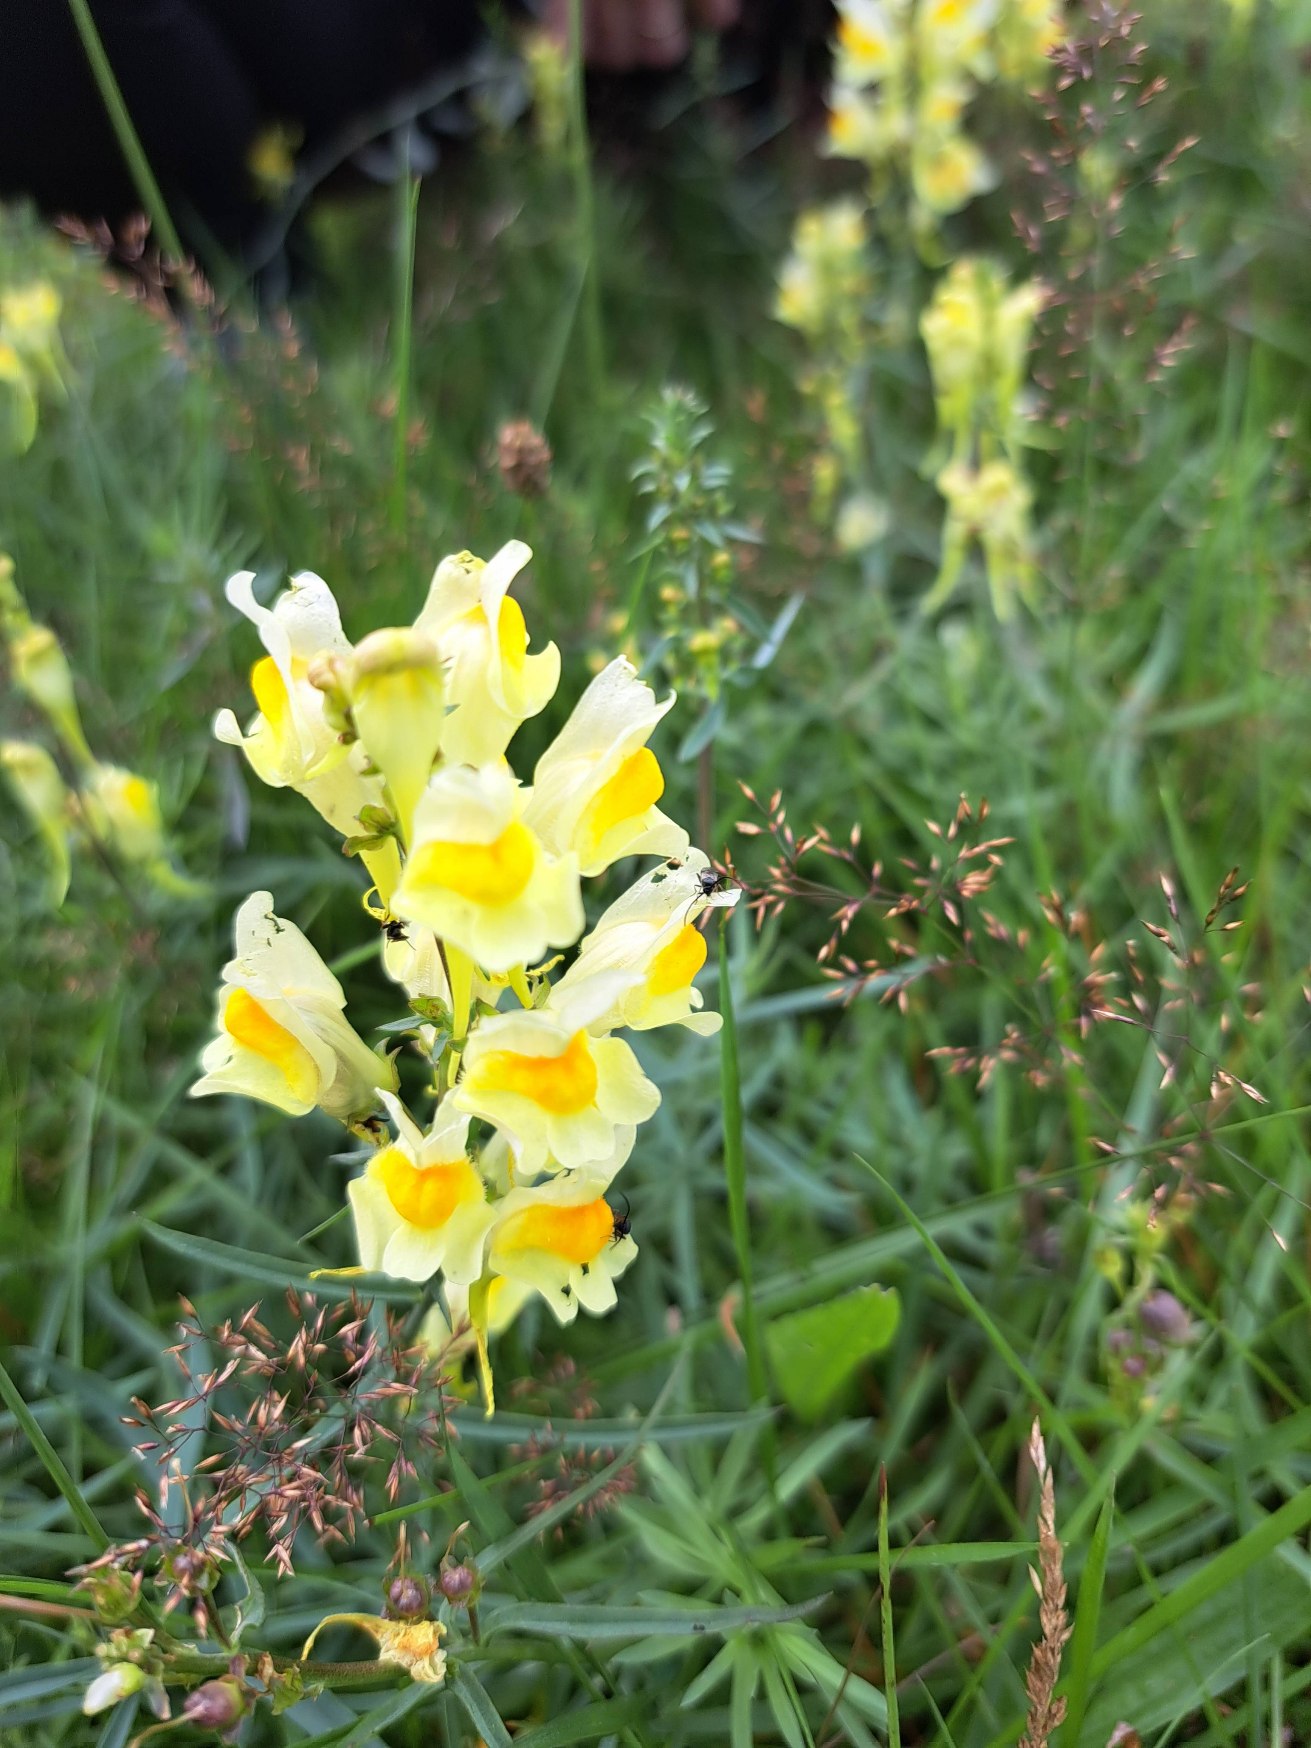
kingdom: Plantae
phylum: Tracheophyta
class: Magnoliopsida
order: Lamiales
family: Plantaginaceae
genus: Linaria
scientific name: Linaria vulgaris
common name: Almindelig torskemund
